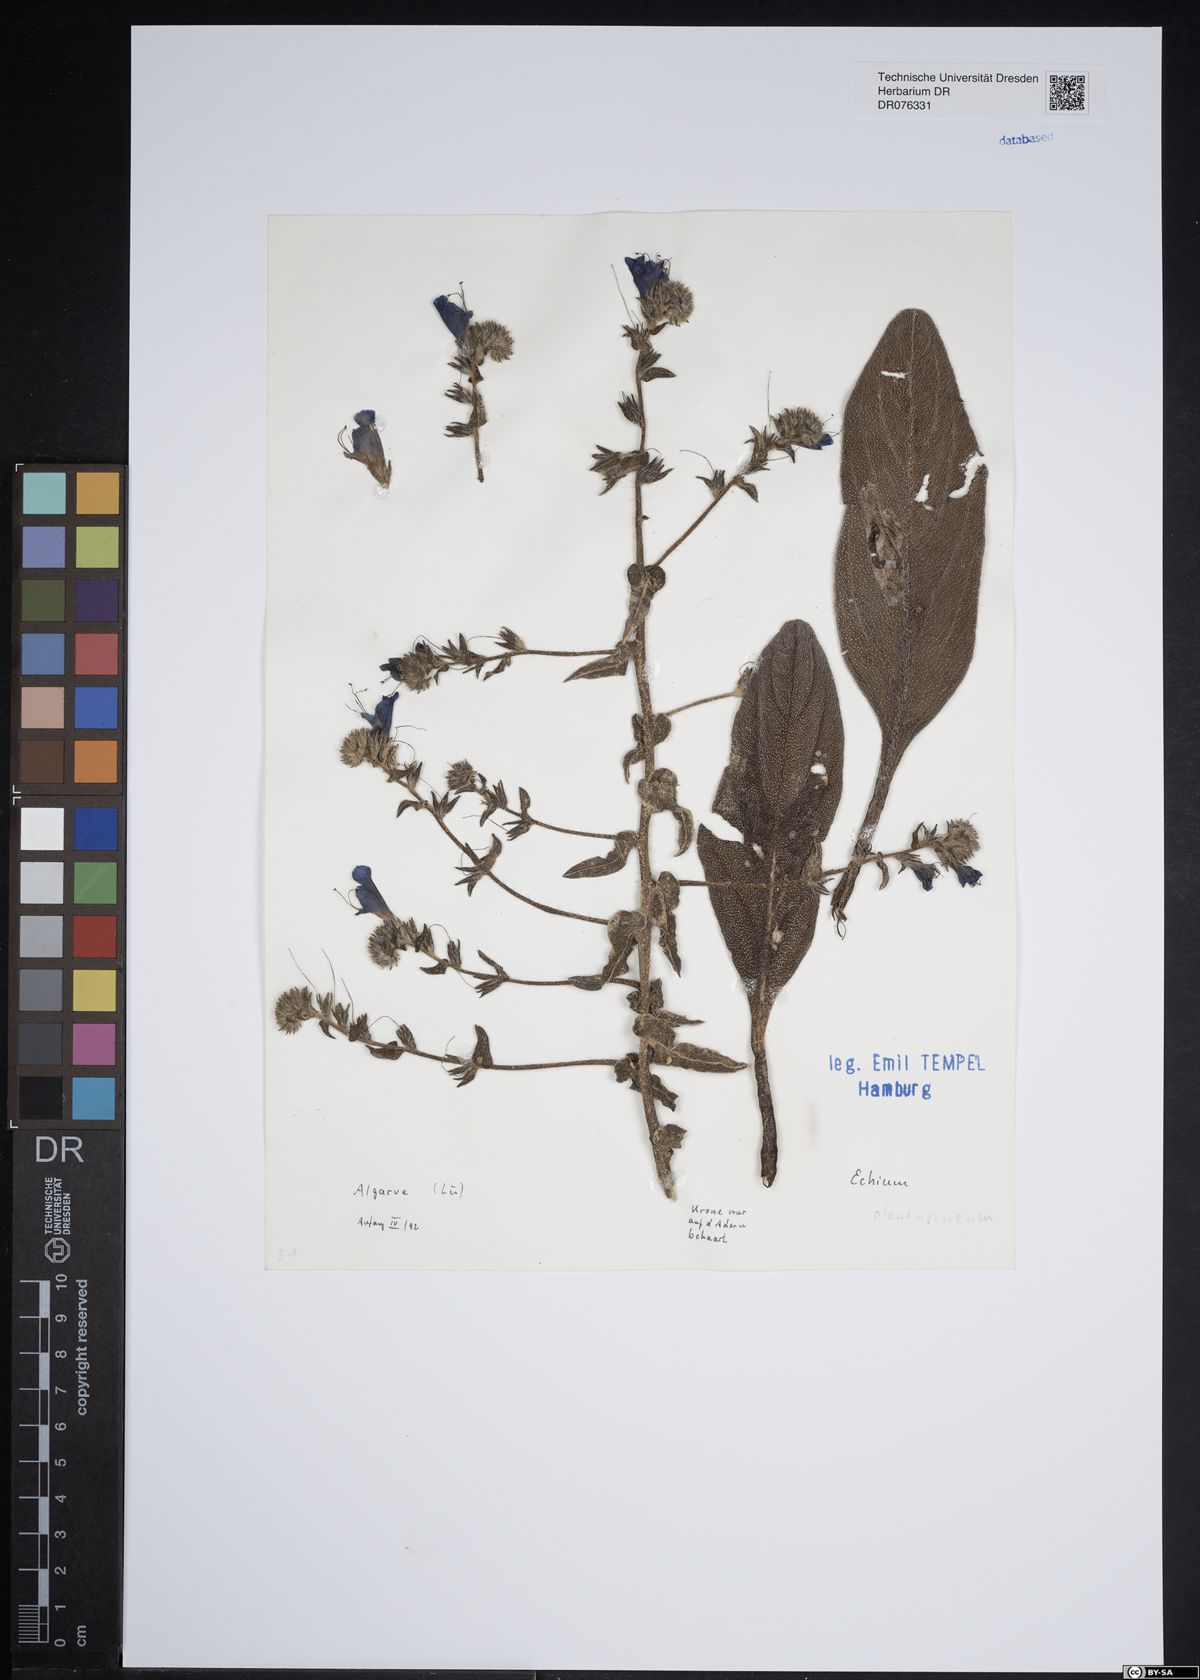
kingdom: Plantae
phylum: Tracheophyta
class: Magnoliopsida
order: Boraginales
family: Boraginaceae
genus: Echium
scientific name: Echium plantagineum
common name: Purple viper's-bugloss
